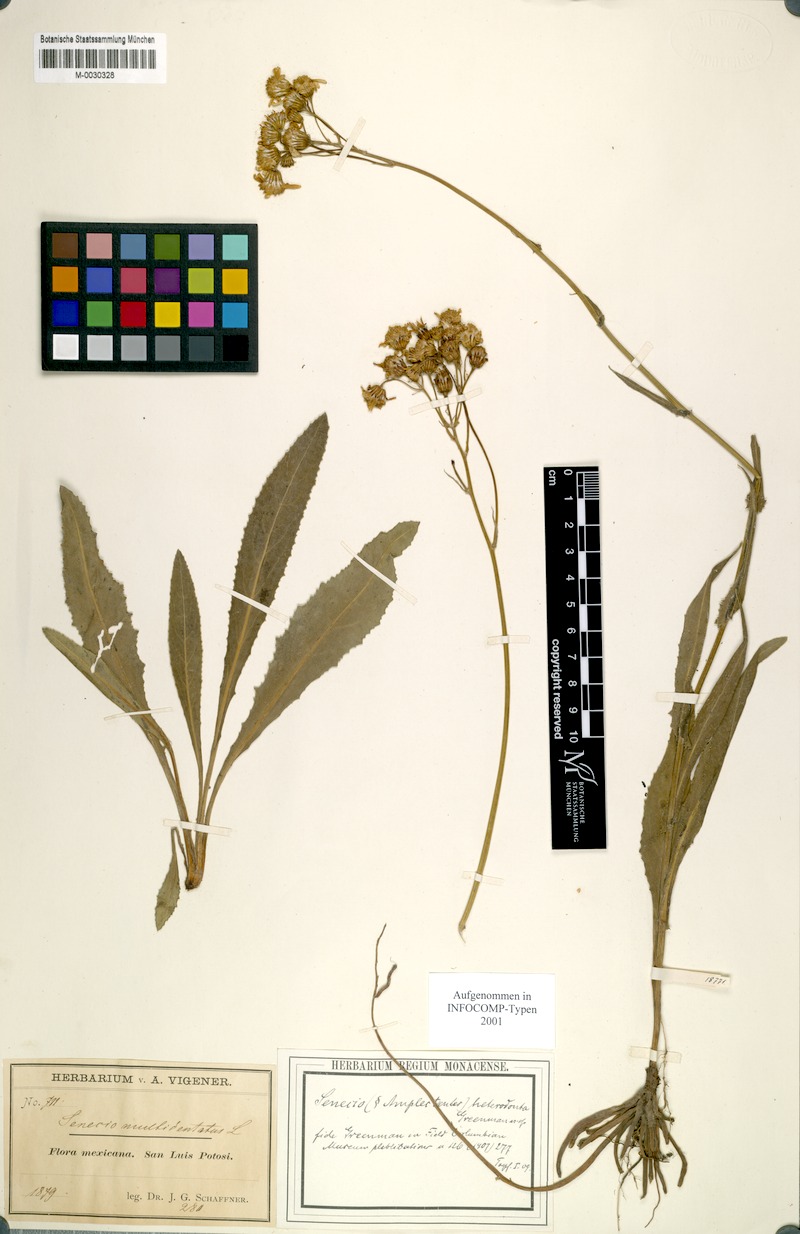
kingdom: Plantae
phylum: Tracheophyta
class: Magnoliopsida
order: Asterales
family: Asteraceae
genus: Senecio
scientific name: Senecio heterodontus
